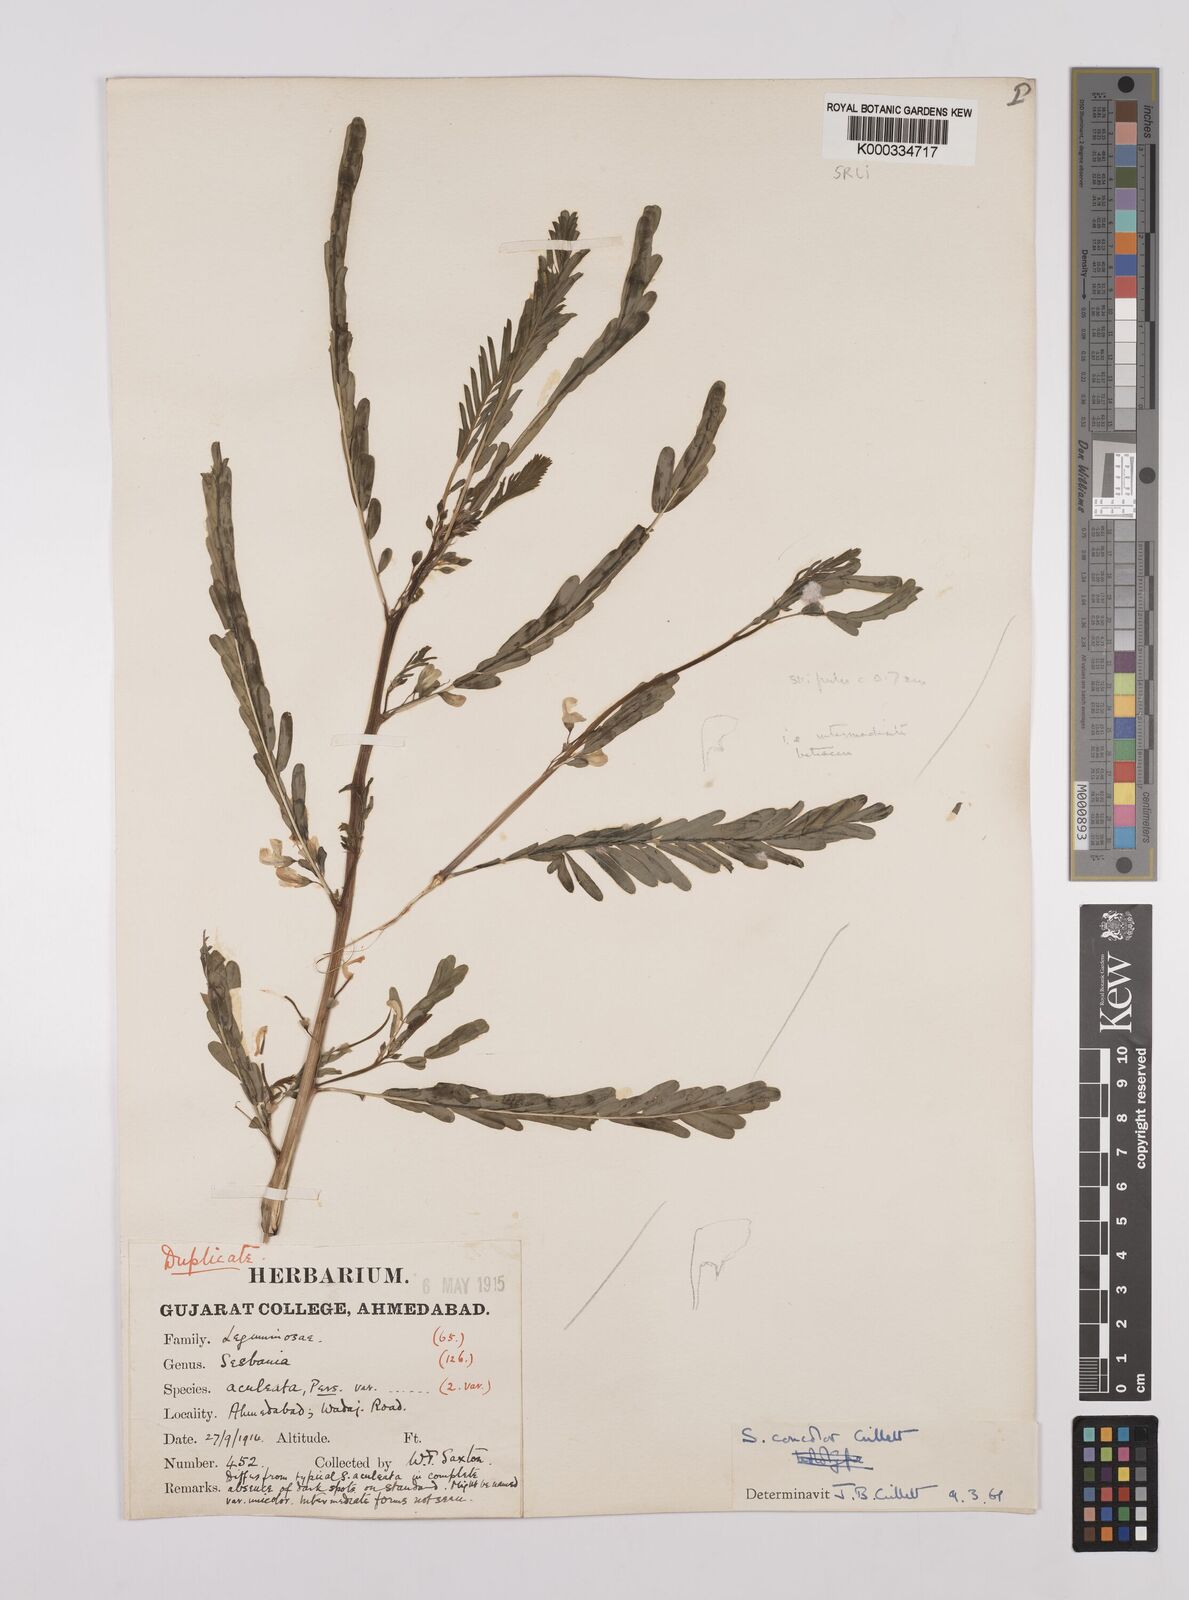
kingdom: Plantae
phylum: Tracheophyta
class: Magnoliopsida
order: Fabales
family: Fabaceae
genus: Sesbania
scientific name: Sesbania concolor
